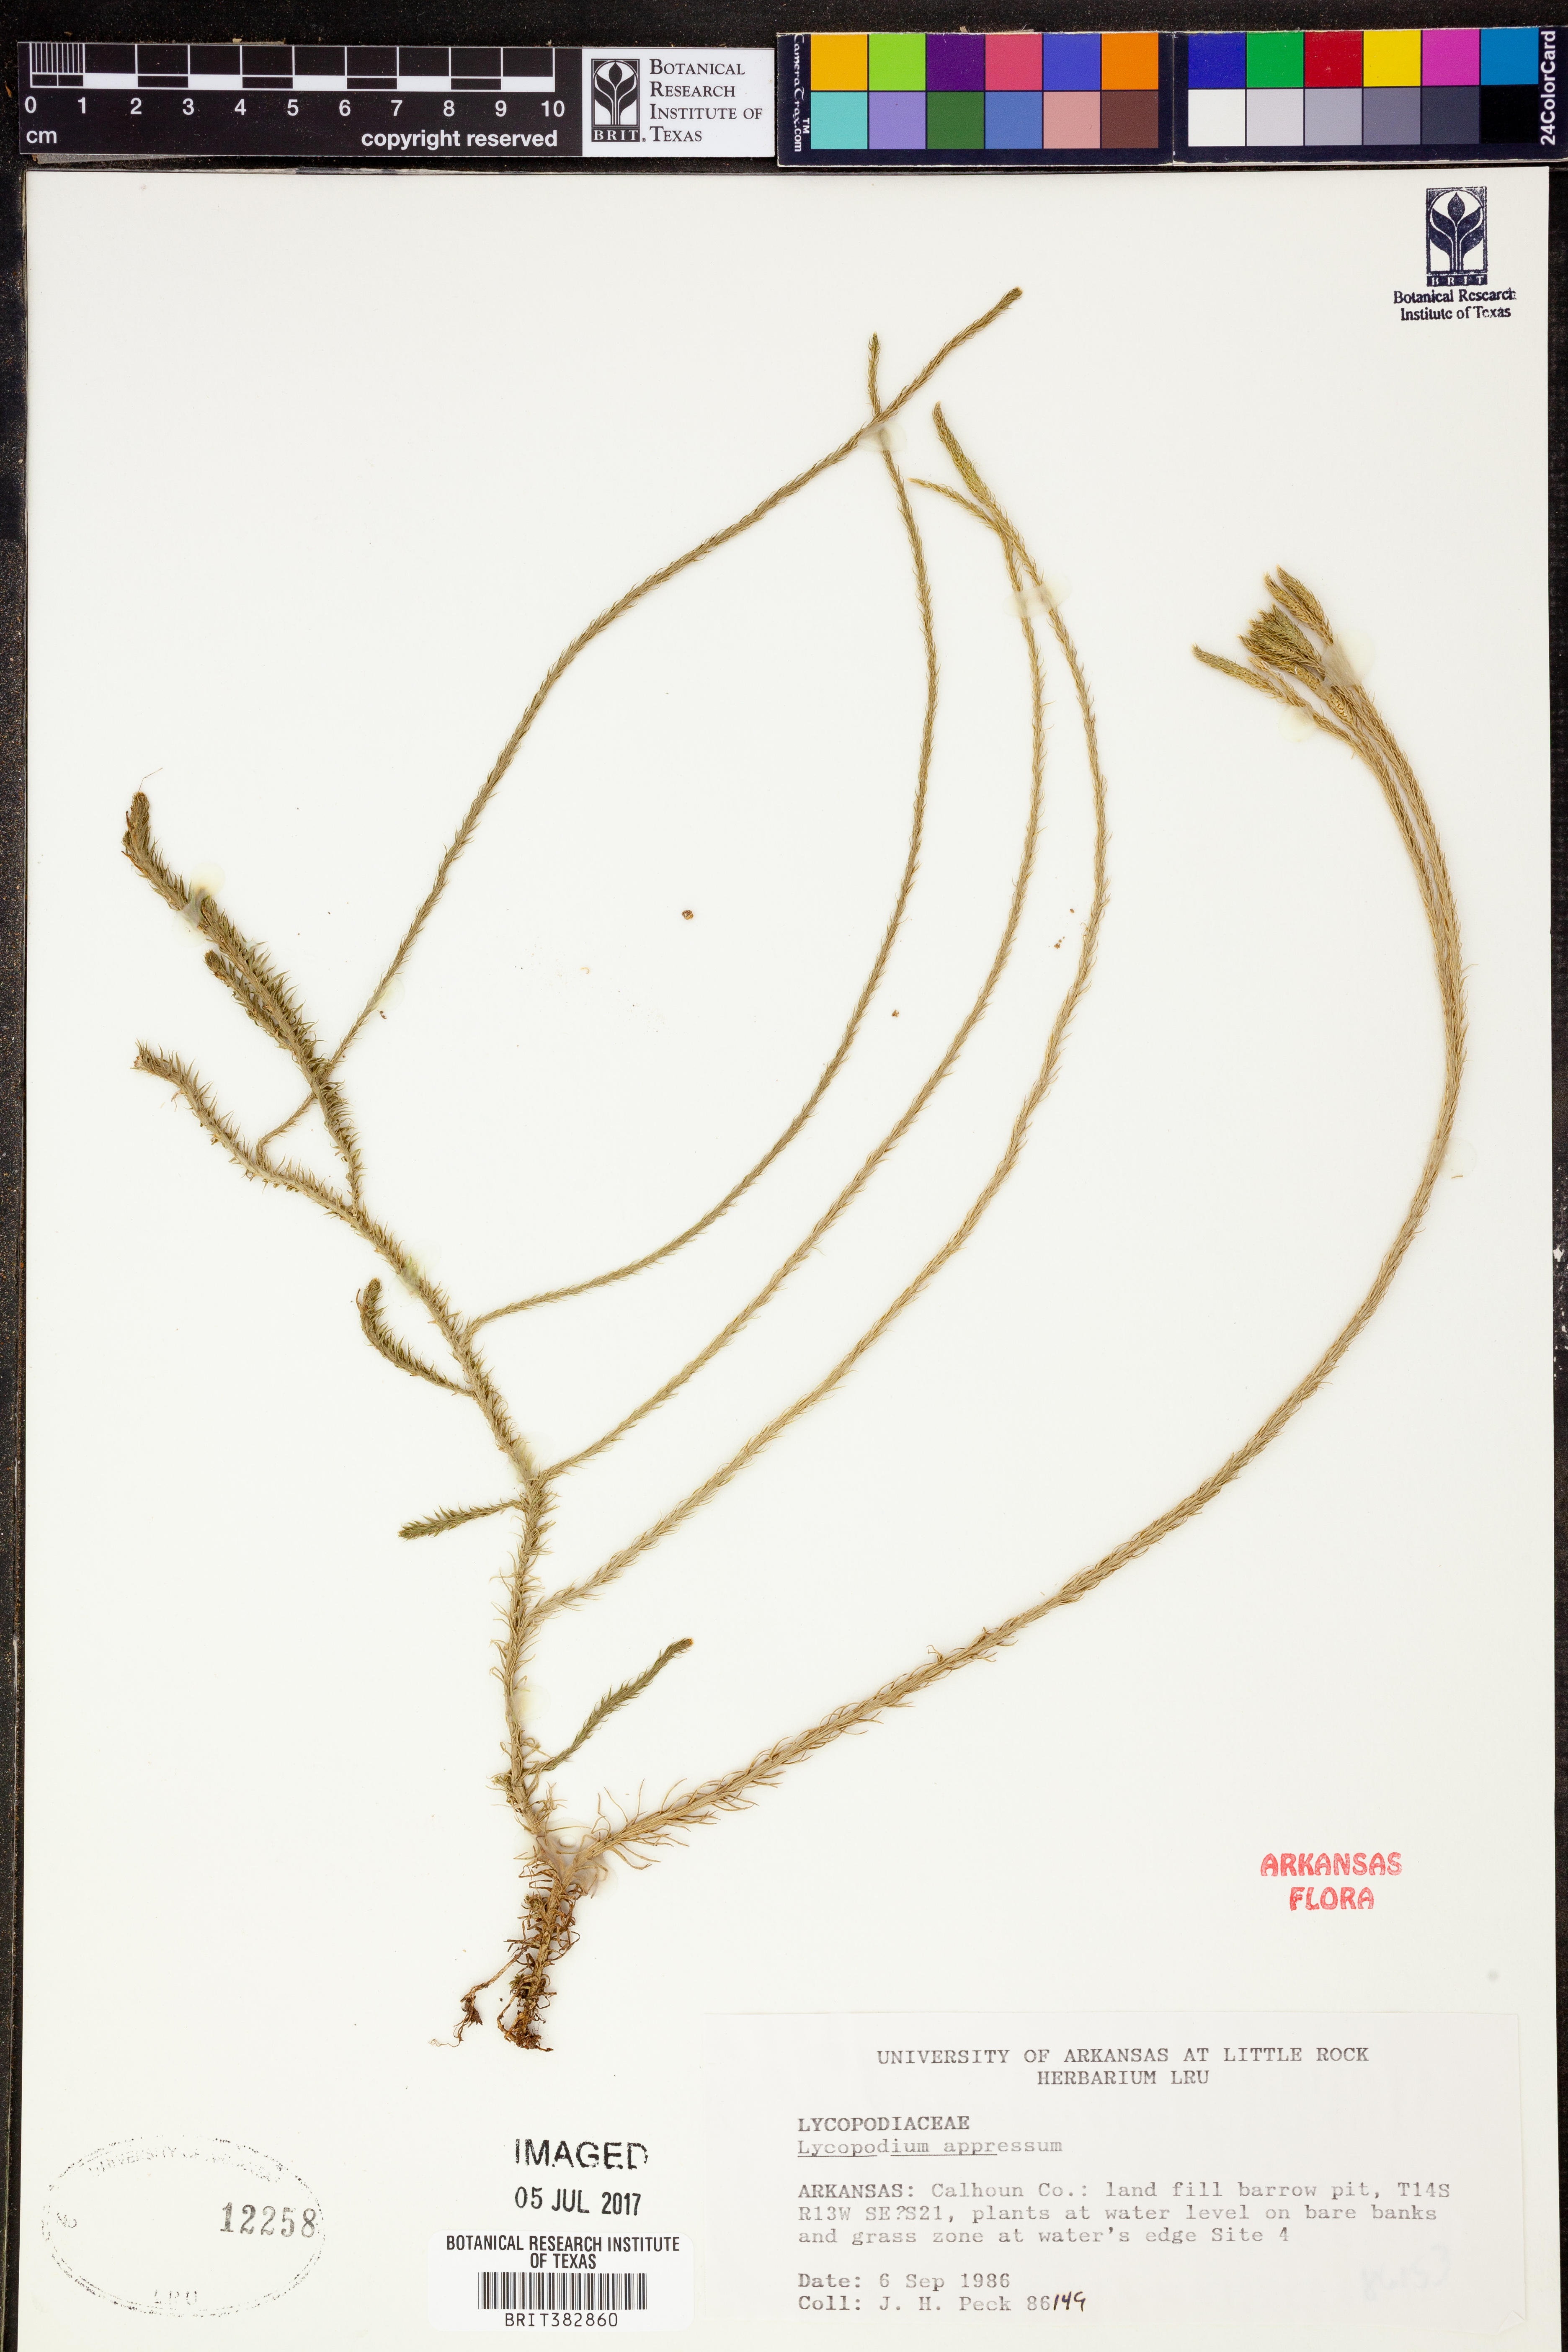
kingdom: Plantae
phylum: Tracheophyta
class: Lycopodiopsida
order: Lycopodiales
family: Lycopodiaceae
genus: Lycopodiella
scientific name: Lycopodiella appressa
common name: Appressed bog clubmoss
